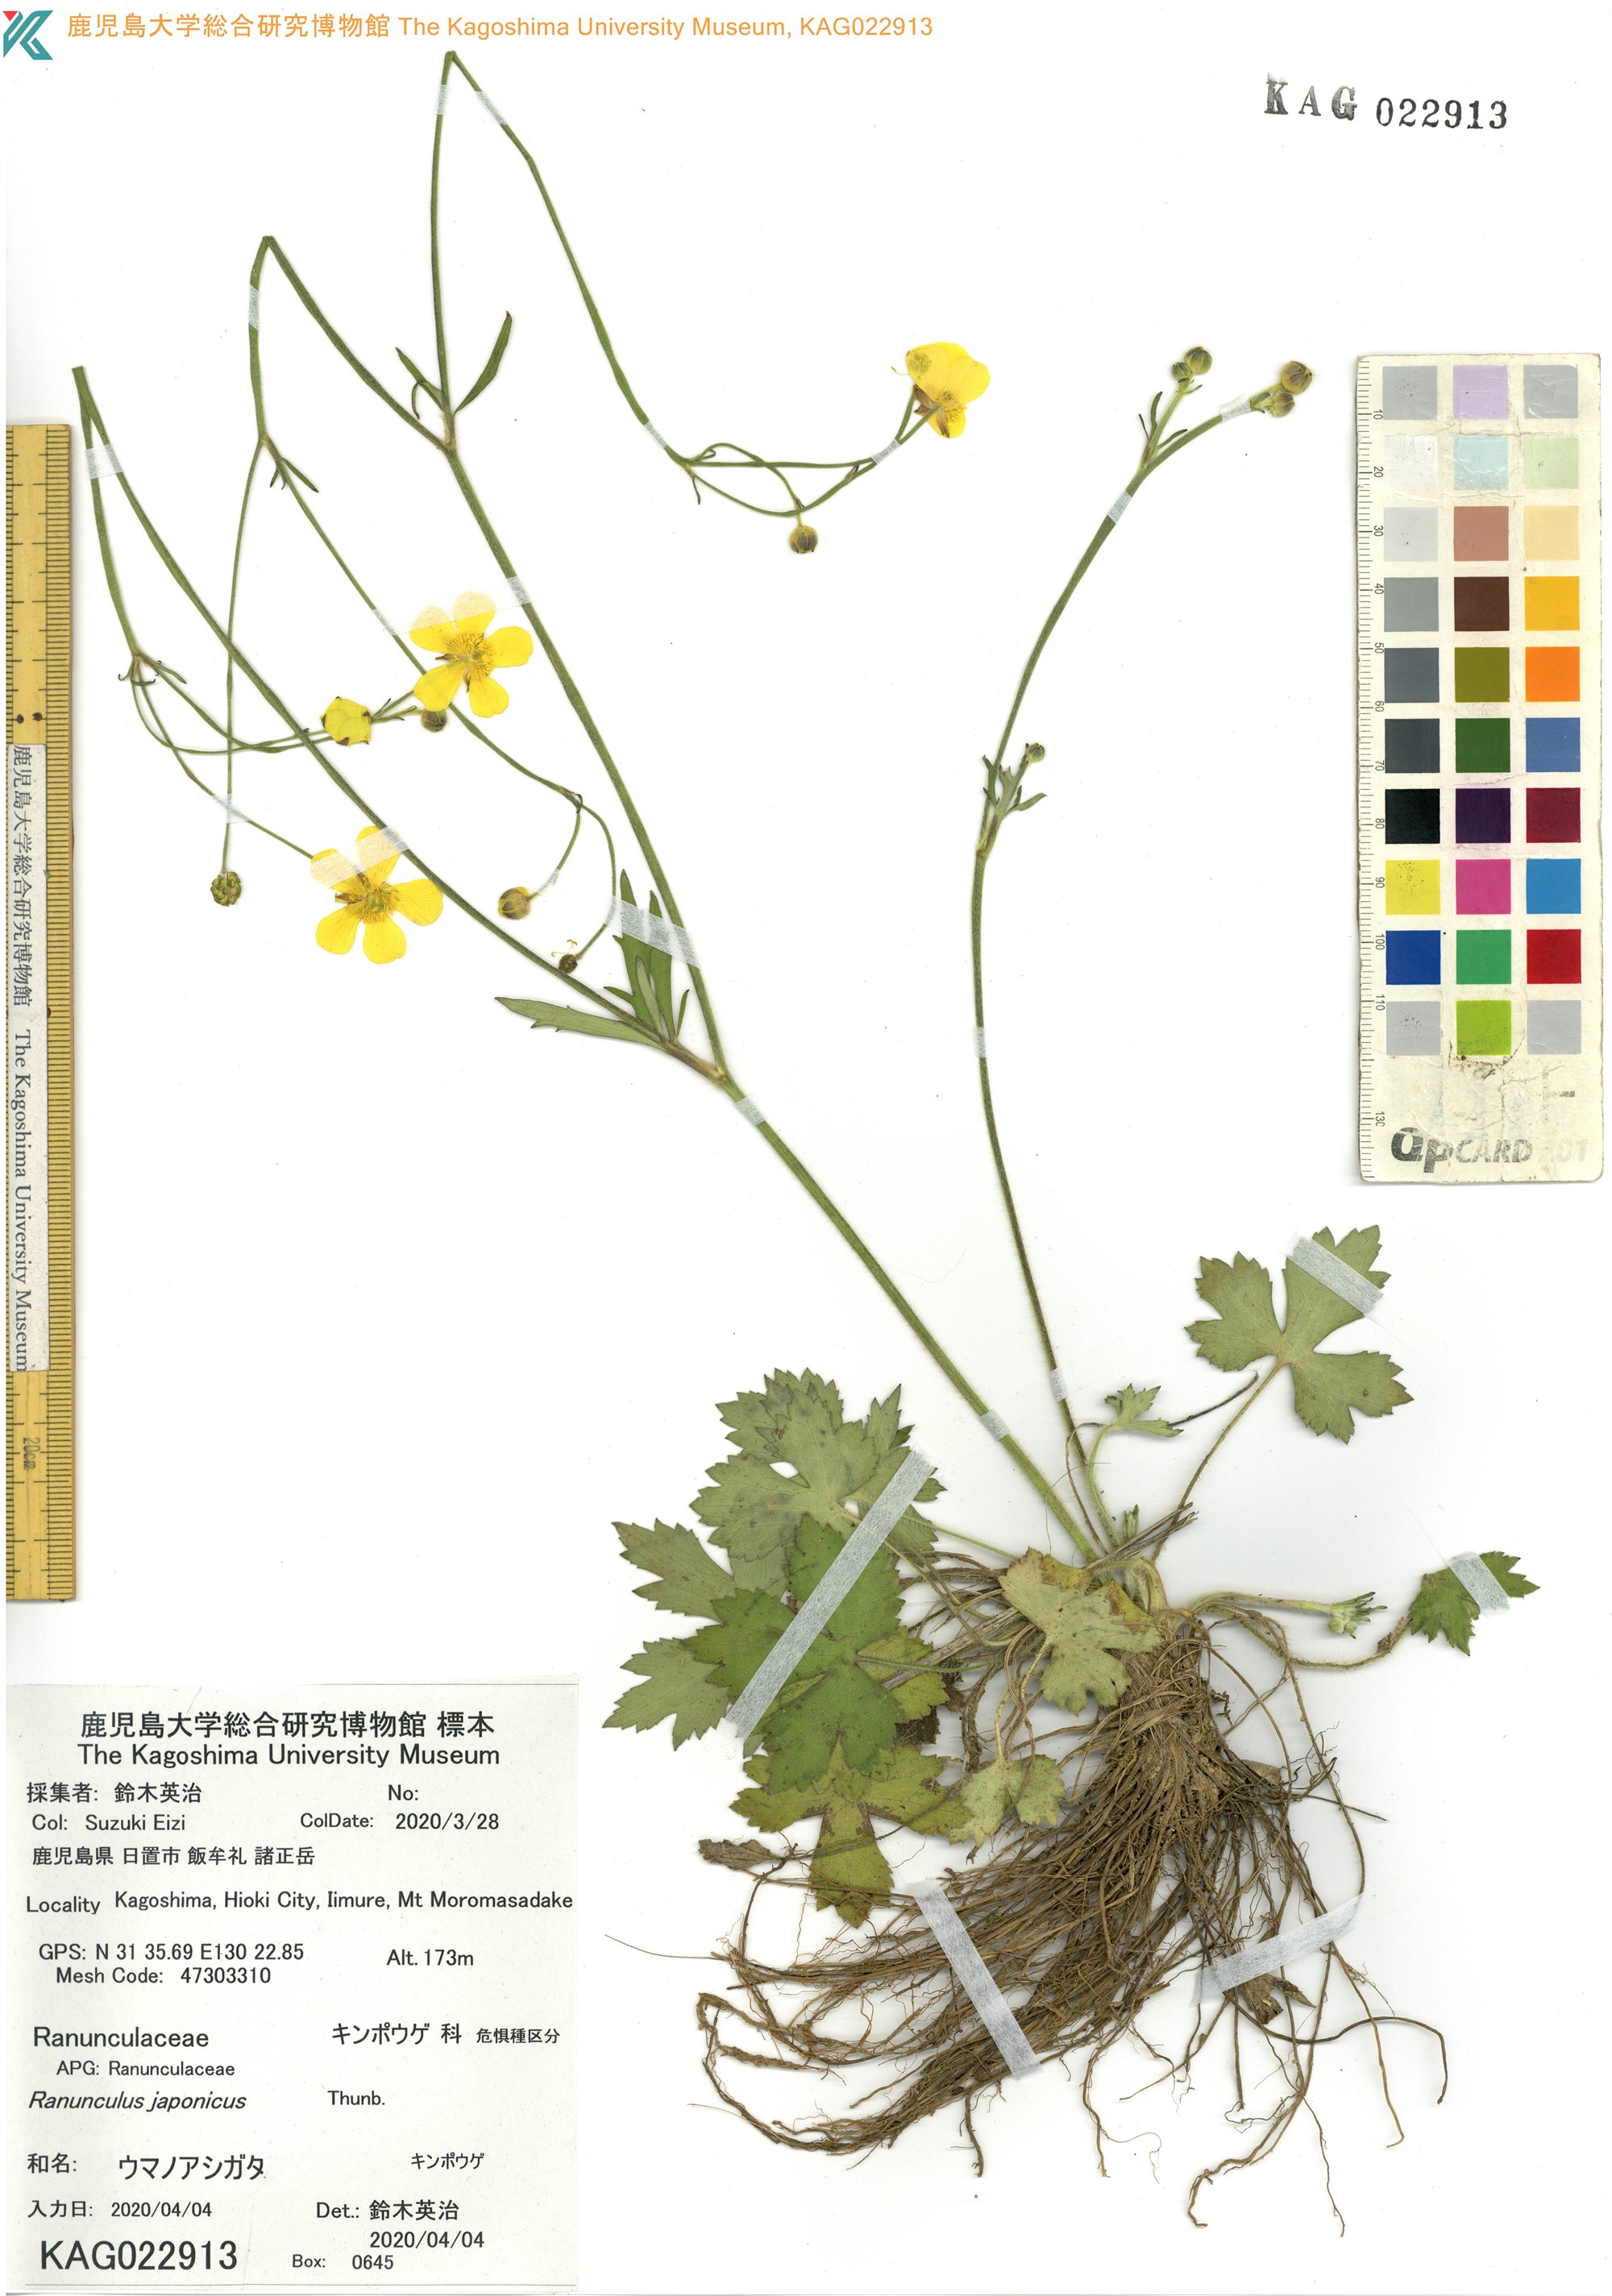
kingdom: Plantae
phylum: Tracheophyta
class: Magnoliopsida
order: Ranunculales
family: Ranunculaceae
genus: Ranunculus
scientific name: Ranunculus japonicus
